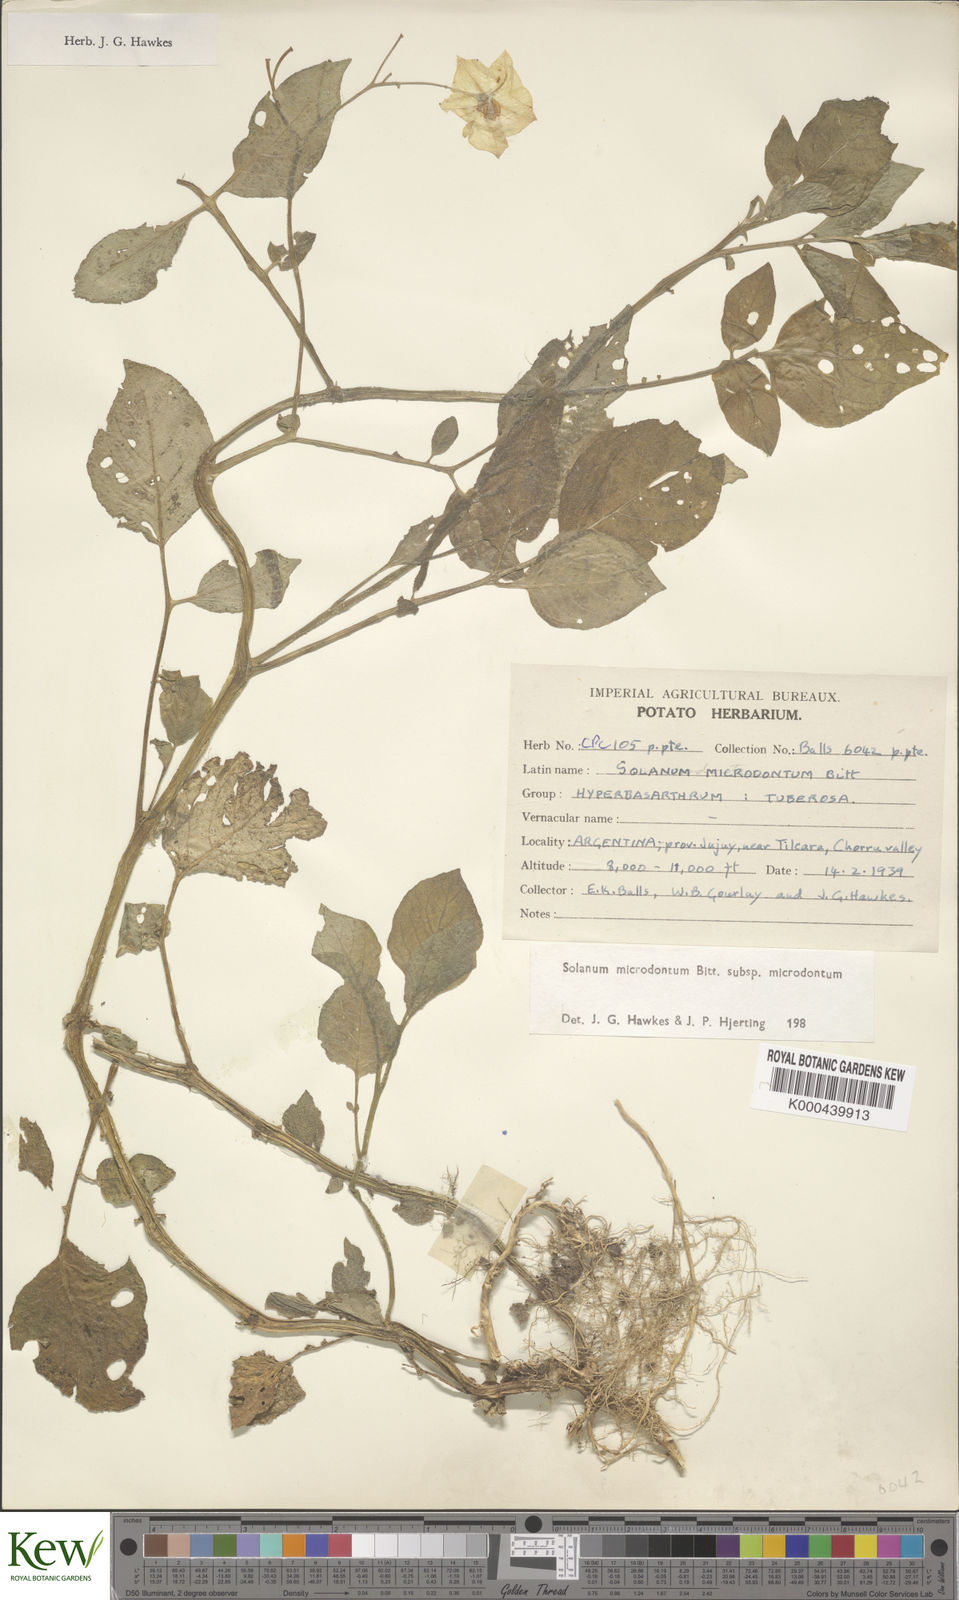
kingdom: Plantae
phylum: Tracheophyta
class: Magnoliopsida
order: Solanales
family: Solanaceae
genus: Solanum
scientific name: Solanum microdontum
